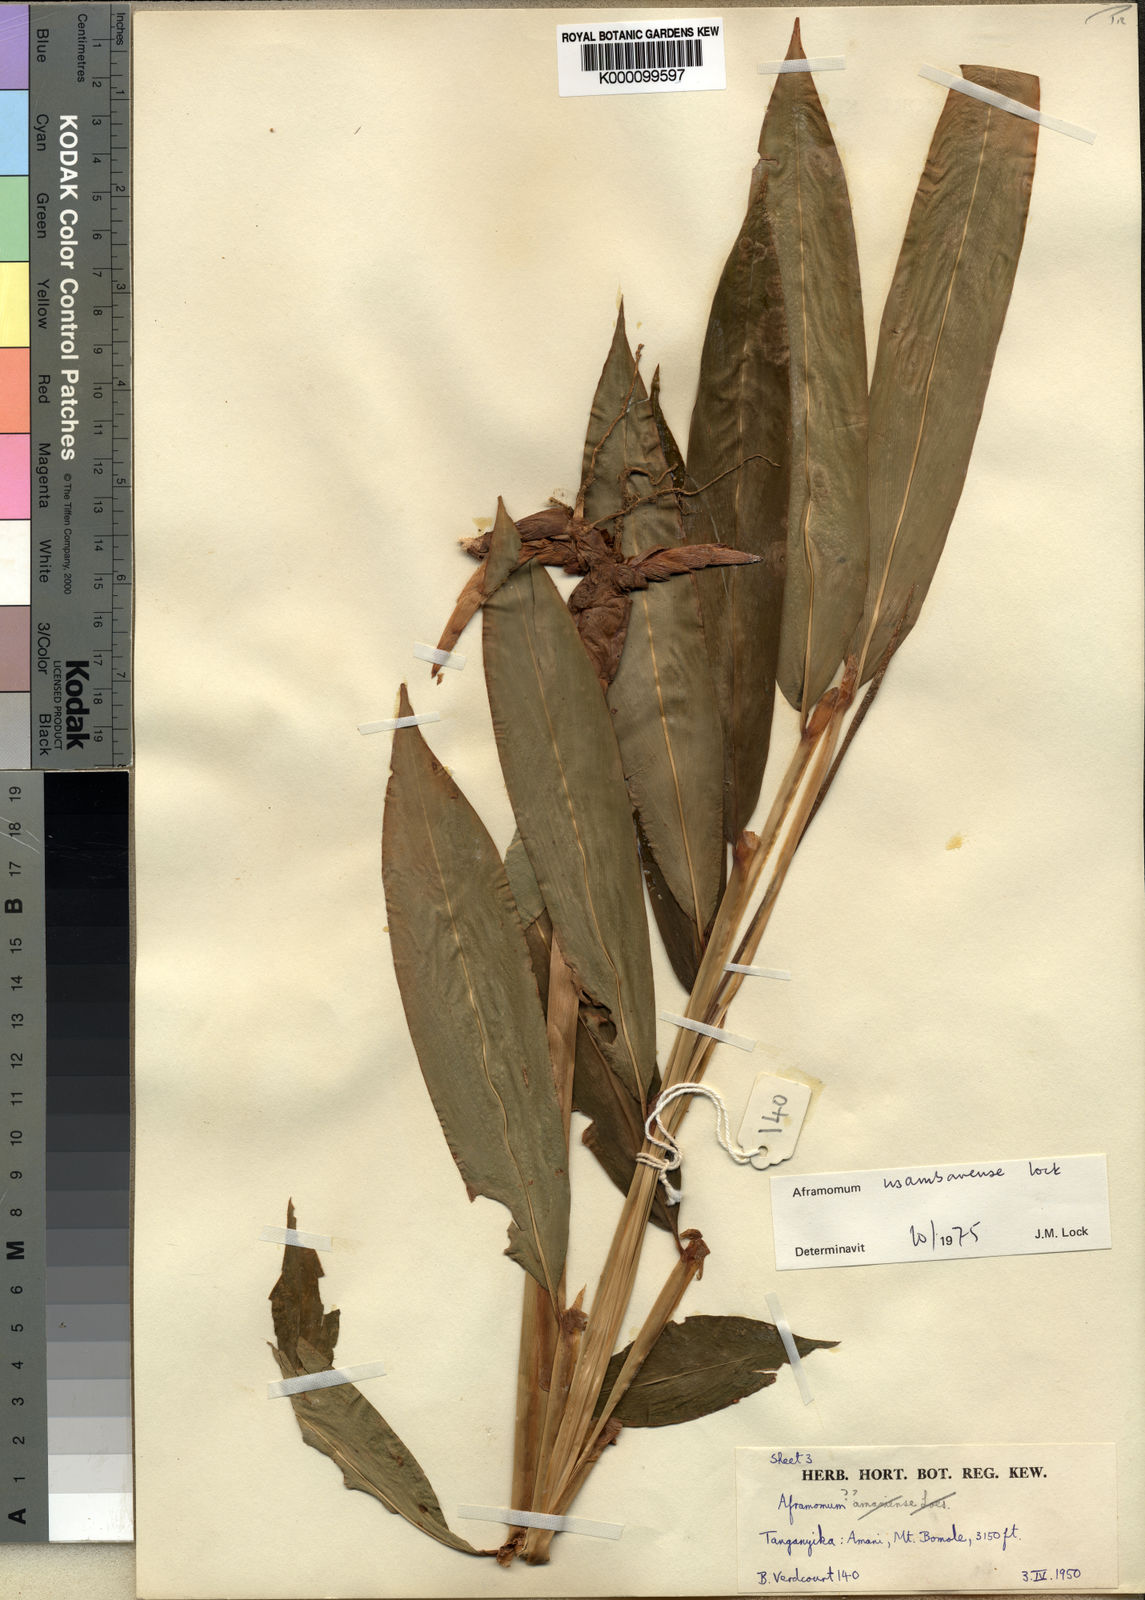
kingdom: Plantae
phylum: Tracheophyta
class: Liliopsida
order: Zingiberales
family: Zingiberaceae
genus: Aframomum
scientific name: Aframomum corrorima
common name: Ethiopian cardamom
